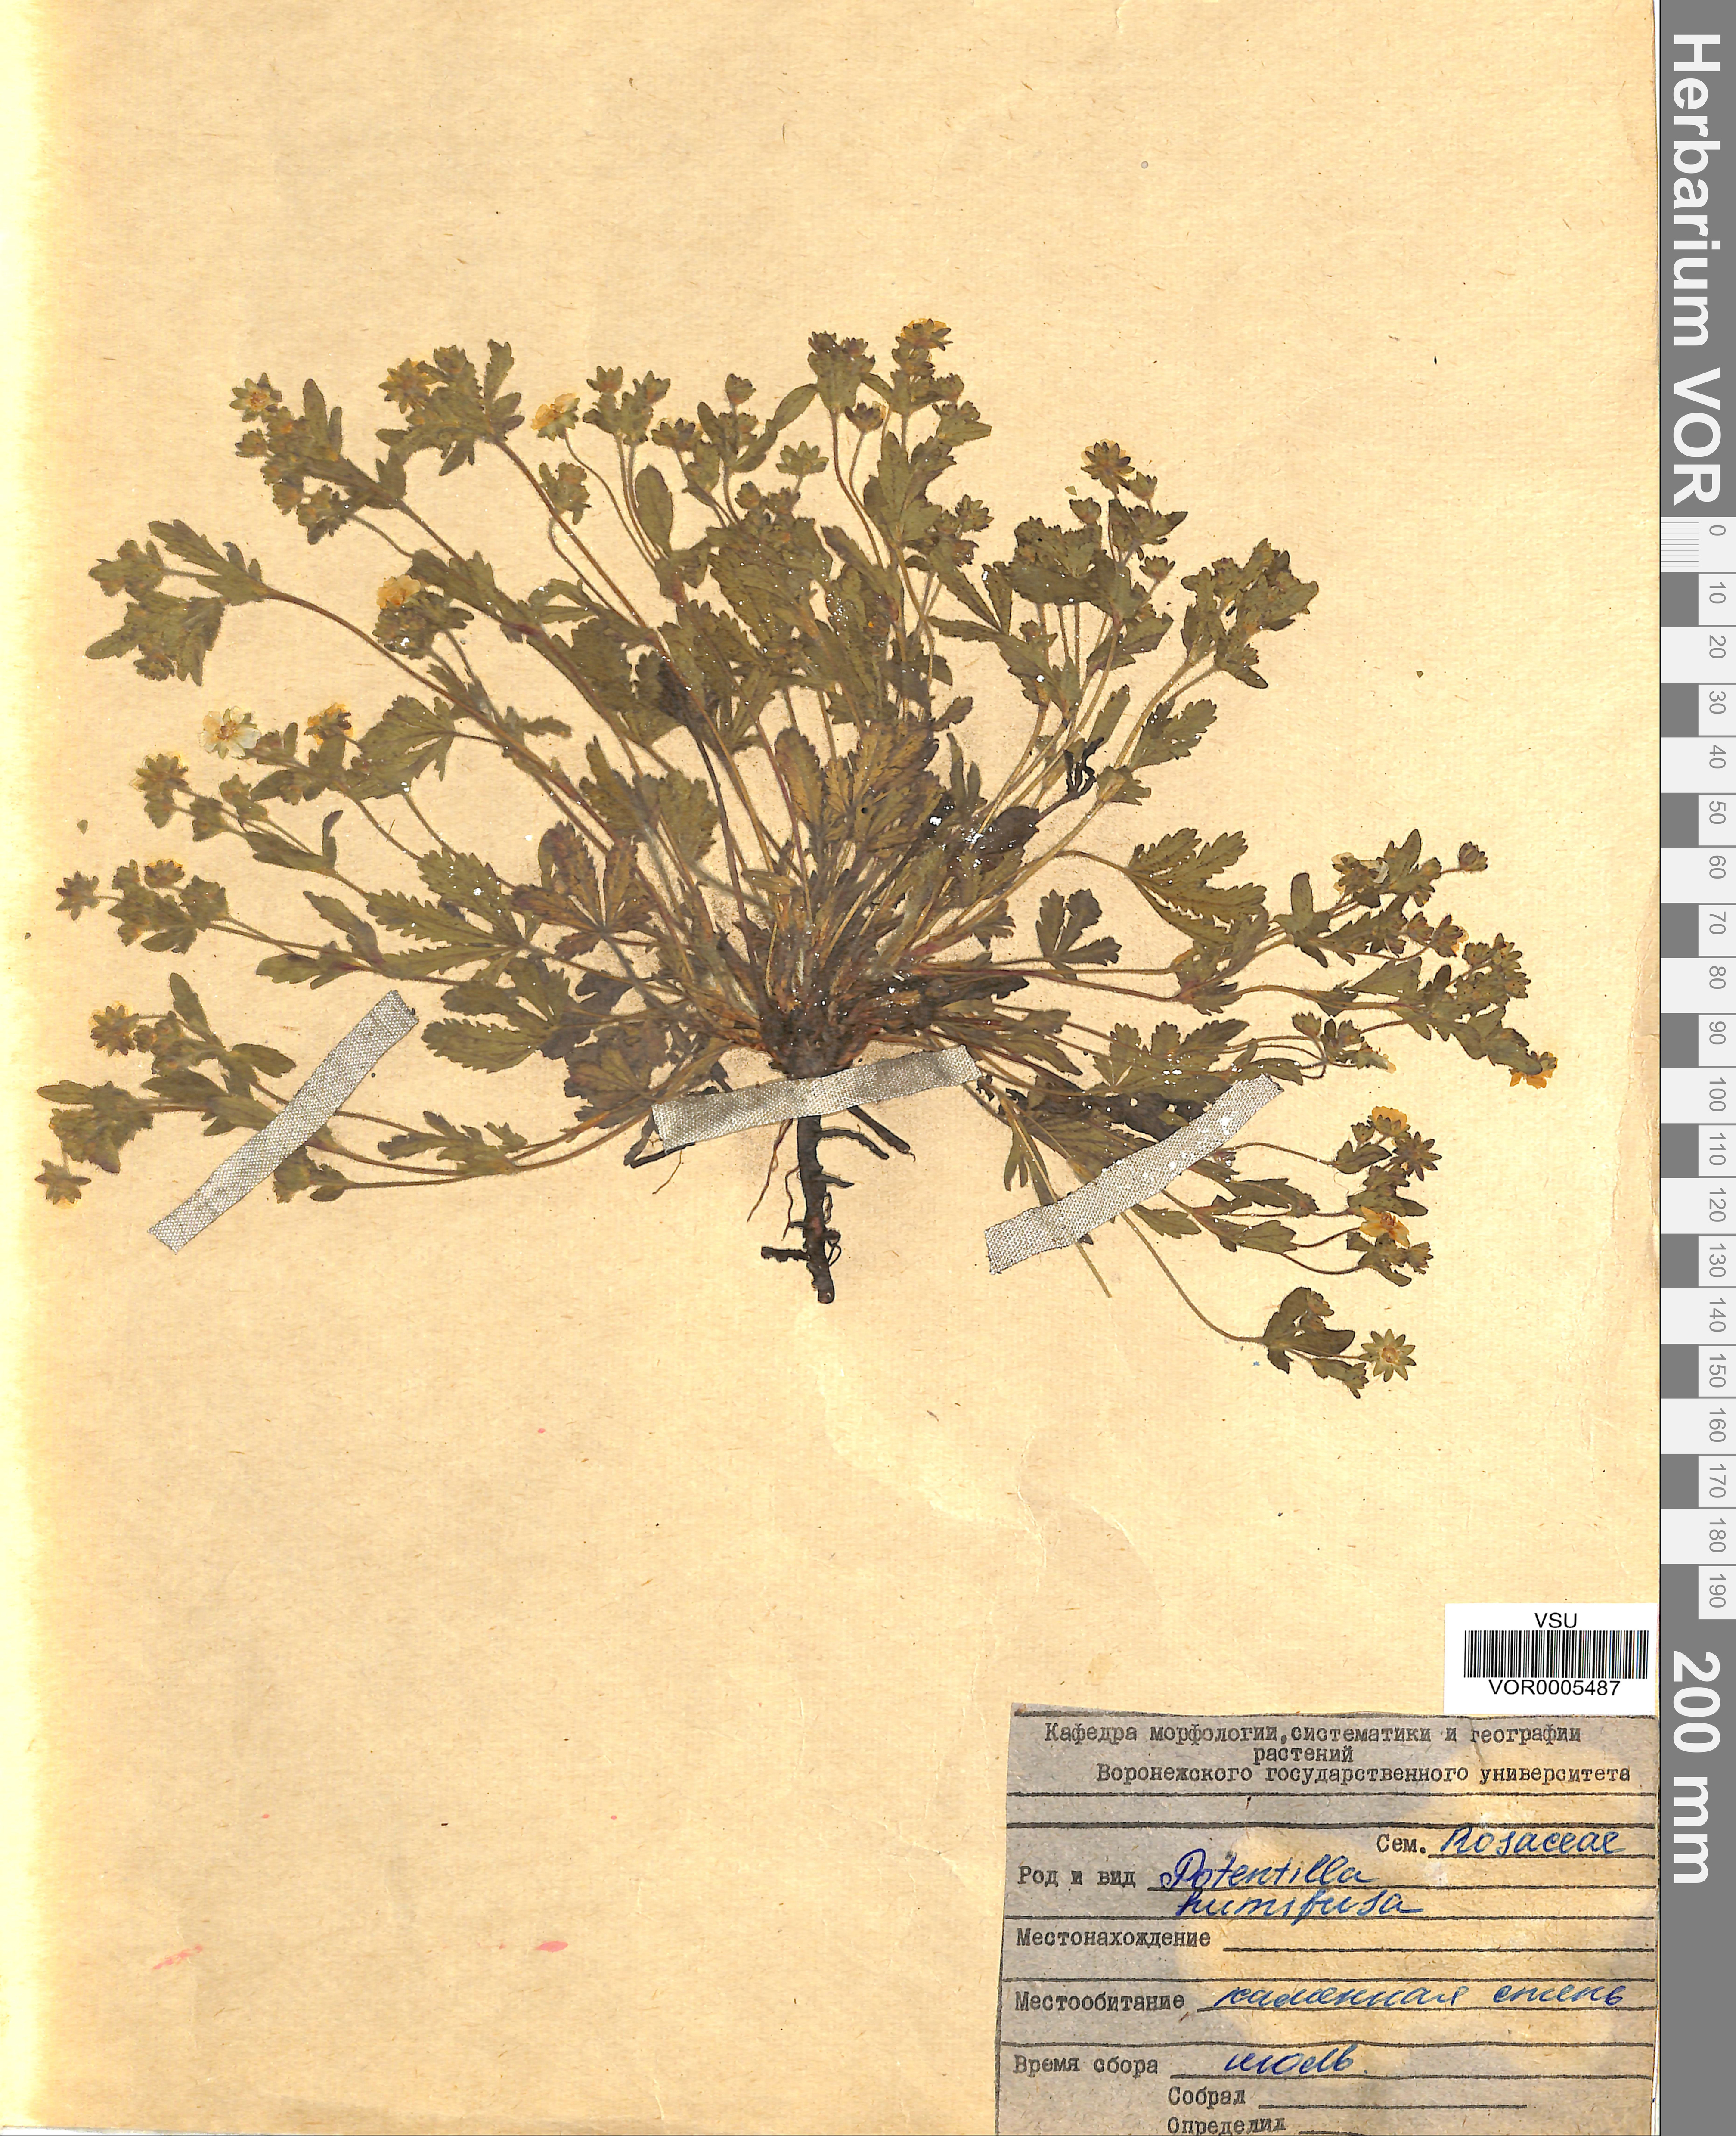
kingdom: Plantae
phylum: Tracheophyta
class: Magnoliopsida
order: Rosales
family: Rosaceae
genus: Potentilla
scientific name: Potentilla humifusa
